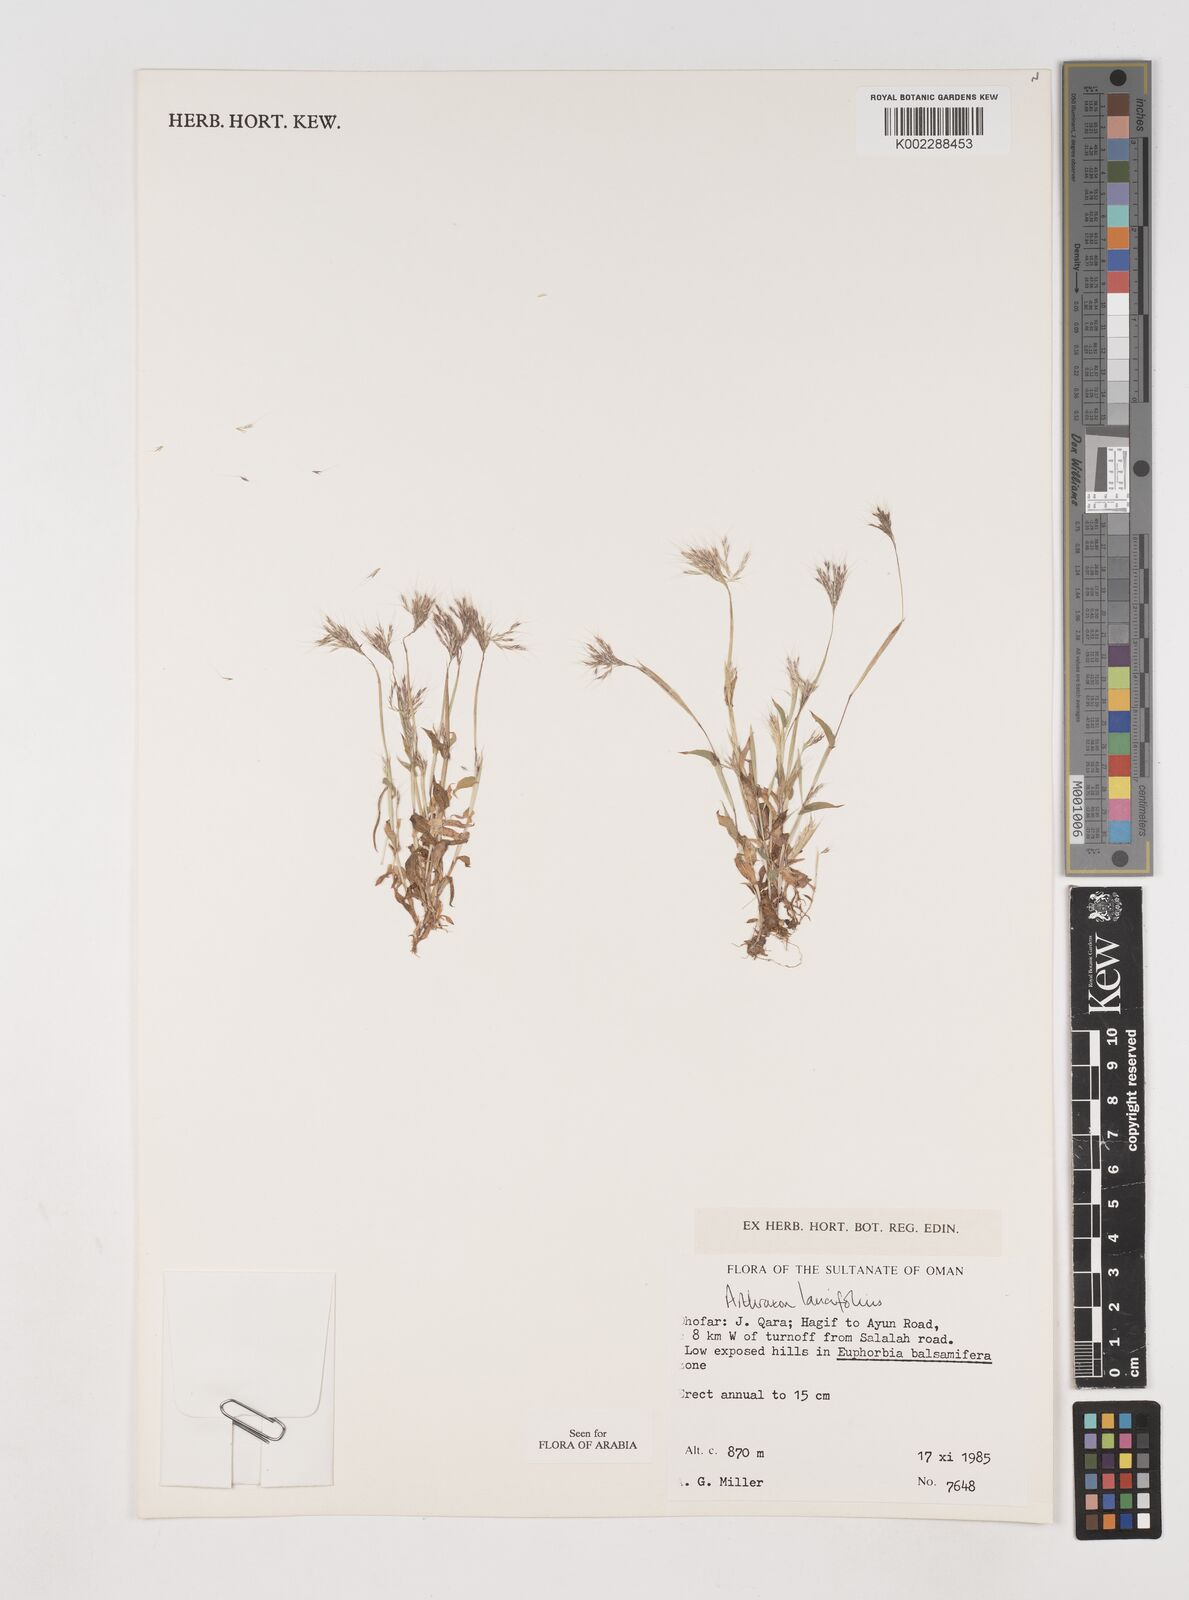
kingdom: Plantae
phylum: Tracheophyta
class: Liliopsida
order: Poales
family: Poaceae
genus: Arthraxon
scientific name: Arthraxon lancifolius
